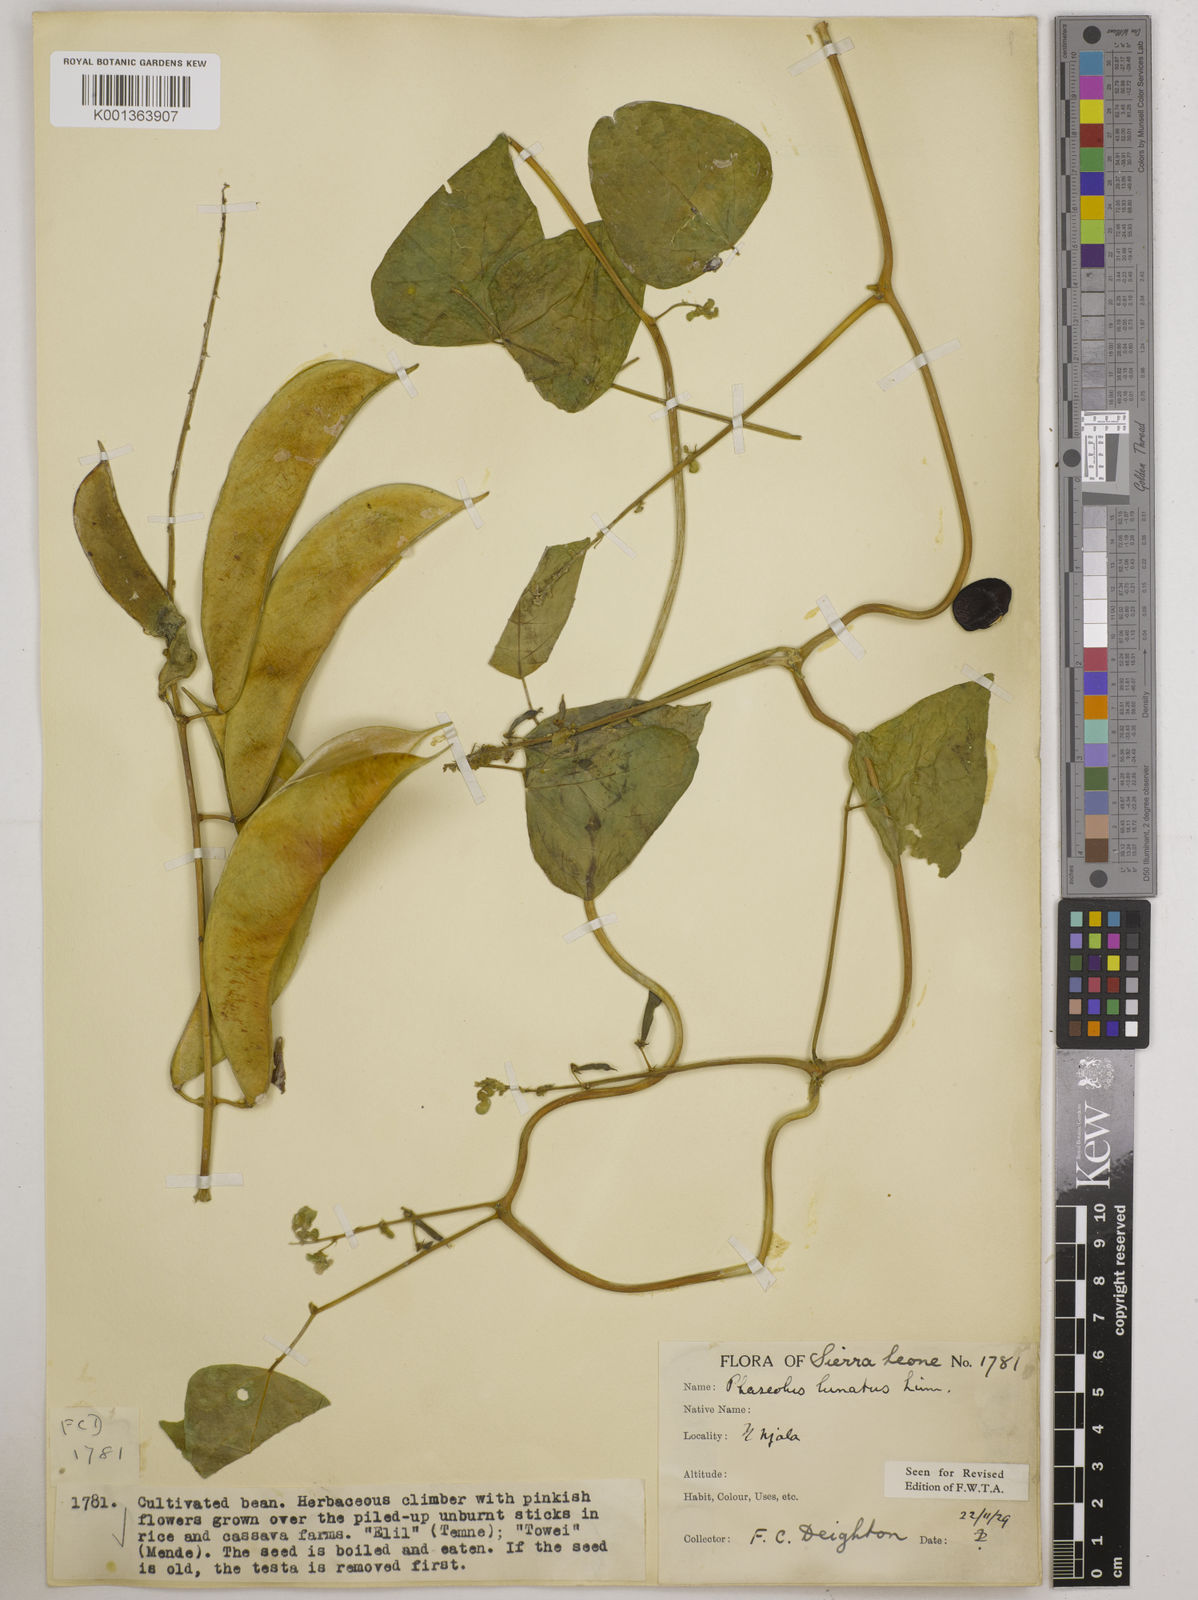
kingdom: Plantae
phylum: Tracheophyta
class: Magnoliopsida
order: Fabales
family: Fabaceae
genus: Phaseolus
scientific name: Phaseolus lunatus
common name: Sieva bean
